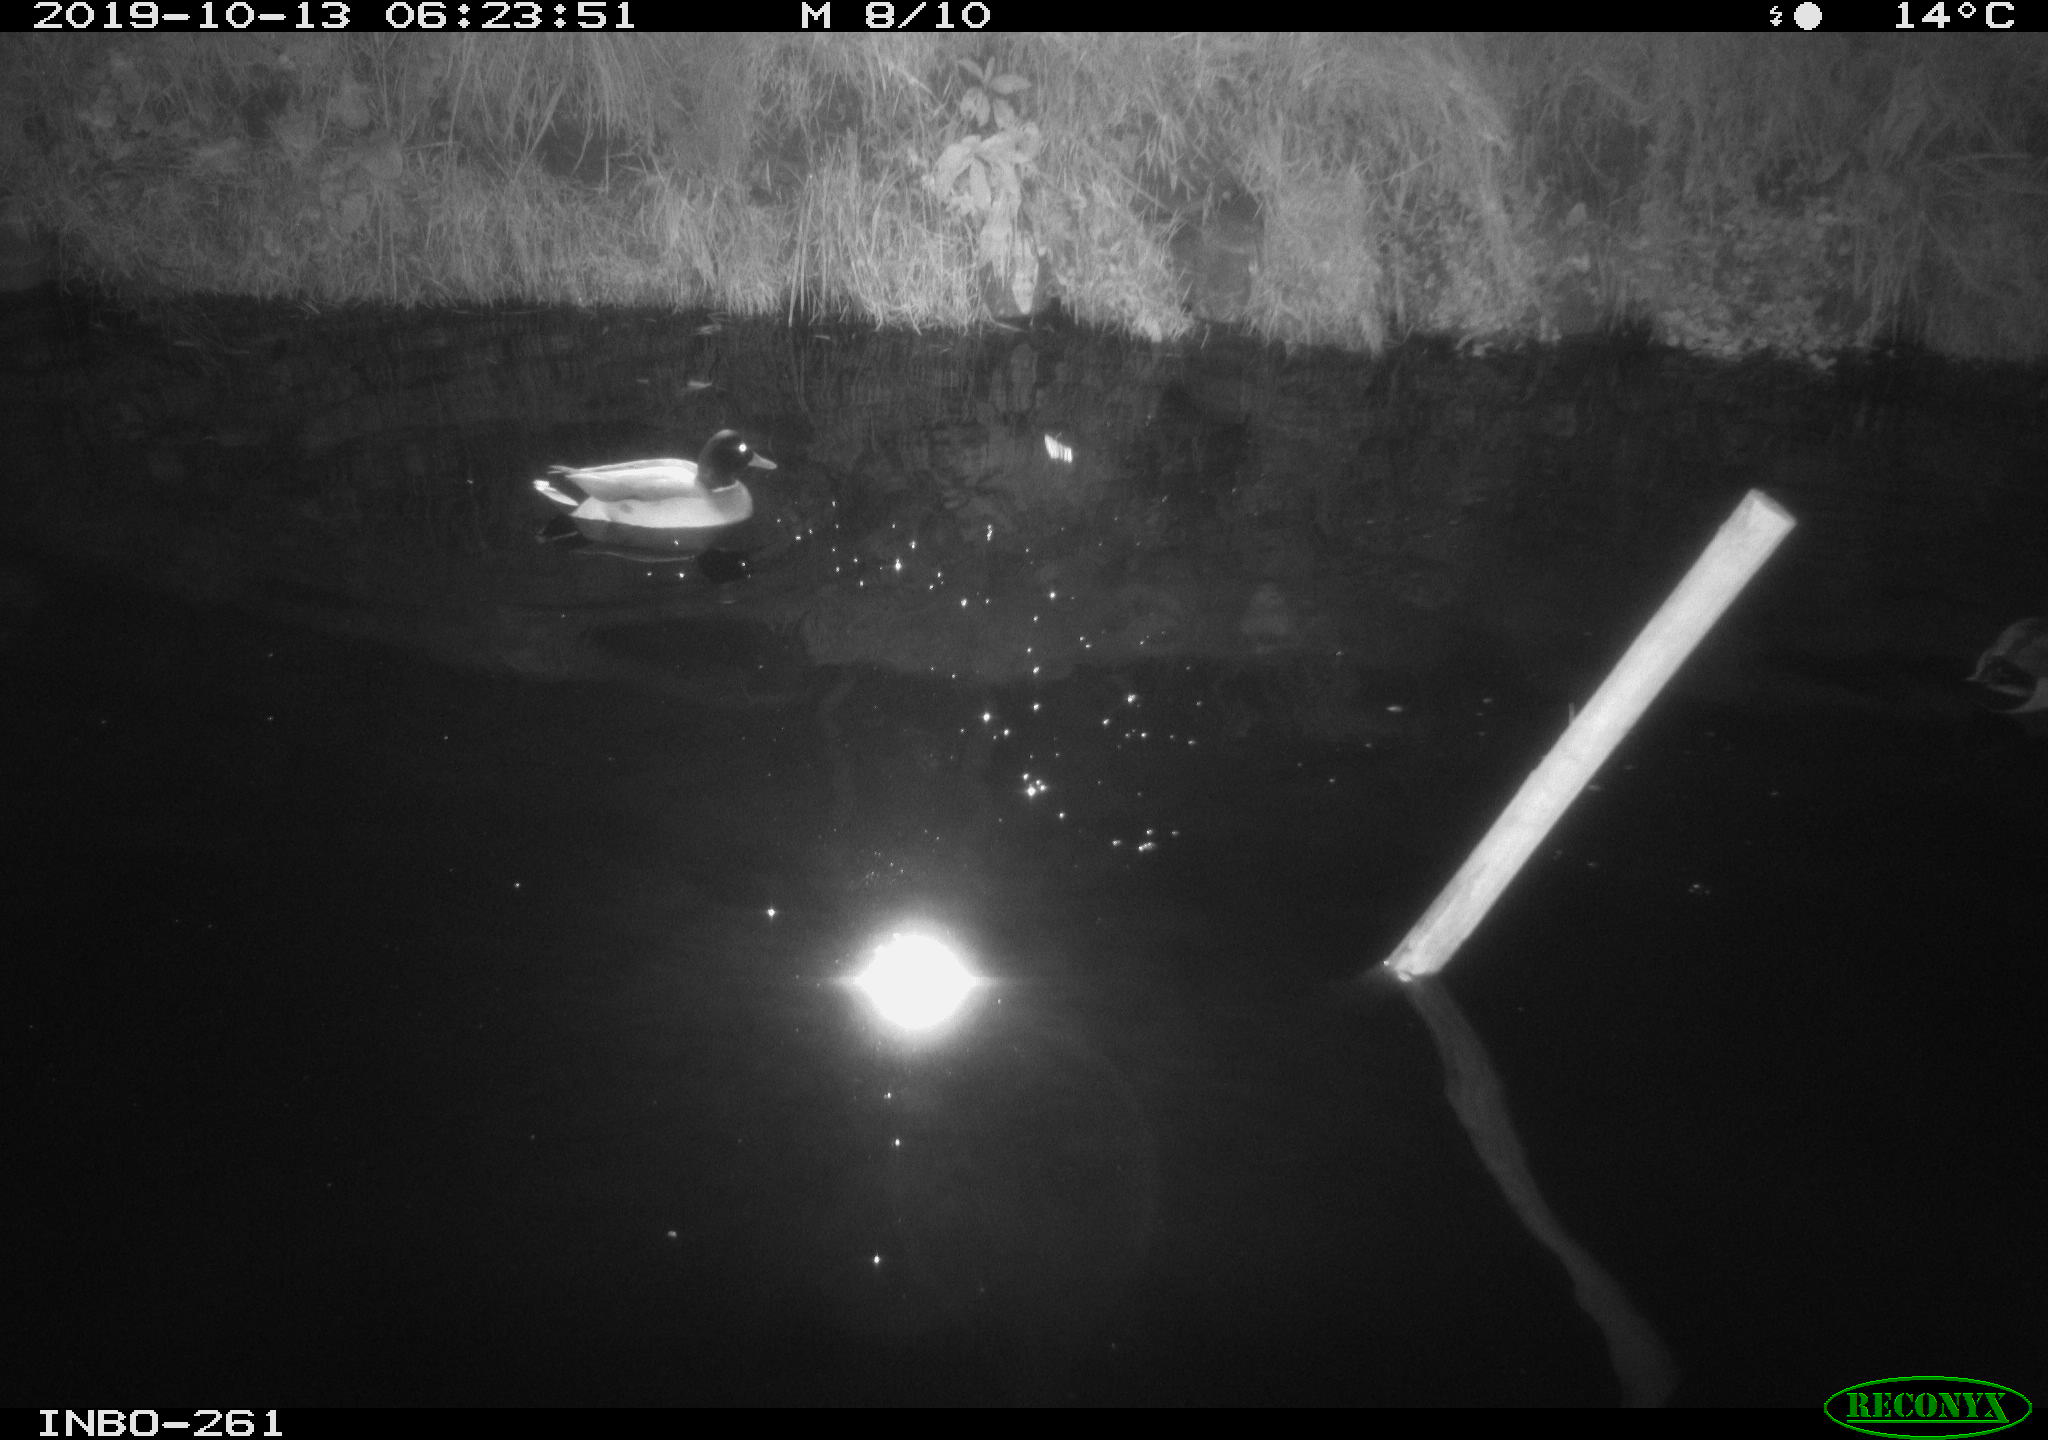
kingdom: Animalia
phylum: Chordata
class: Aves
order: Anseriformes
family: Anatidae
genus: Anas
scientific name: Anas platyrhynchos
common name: Mallard
